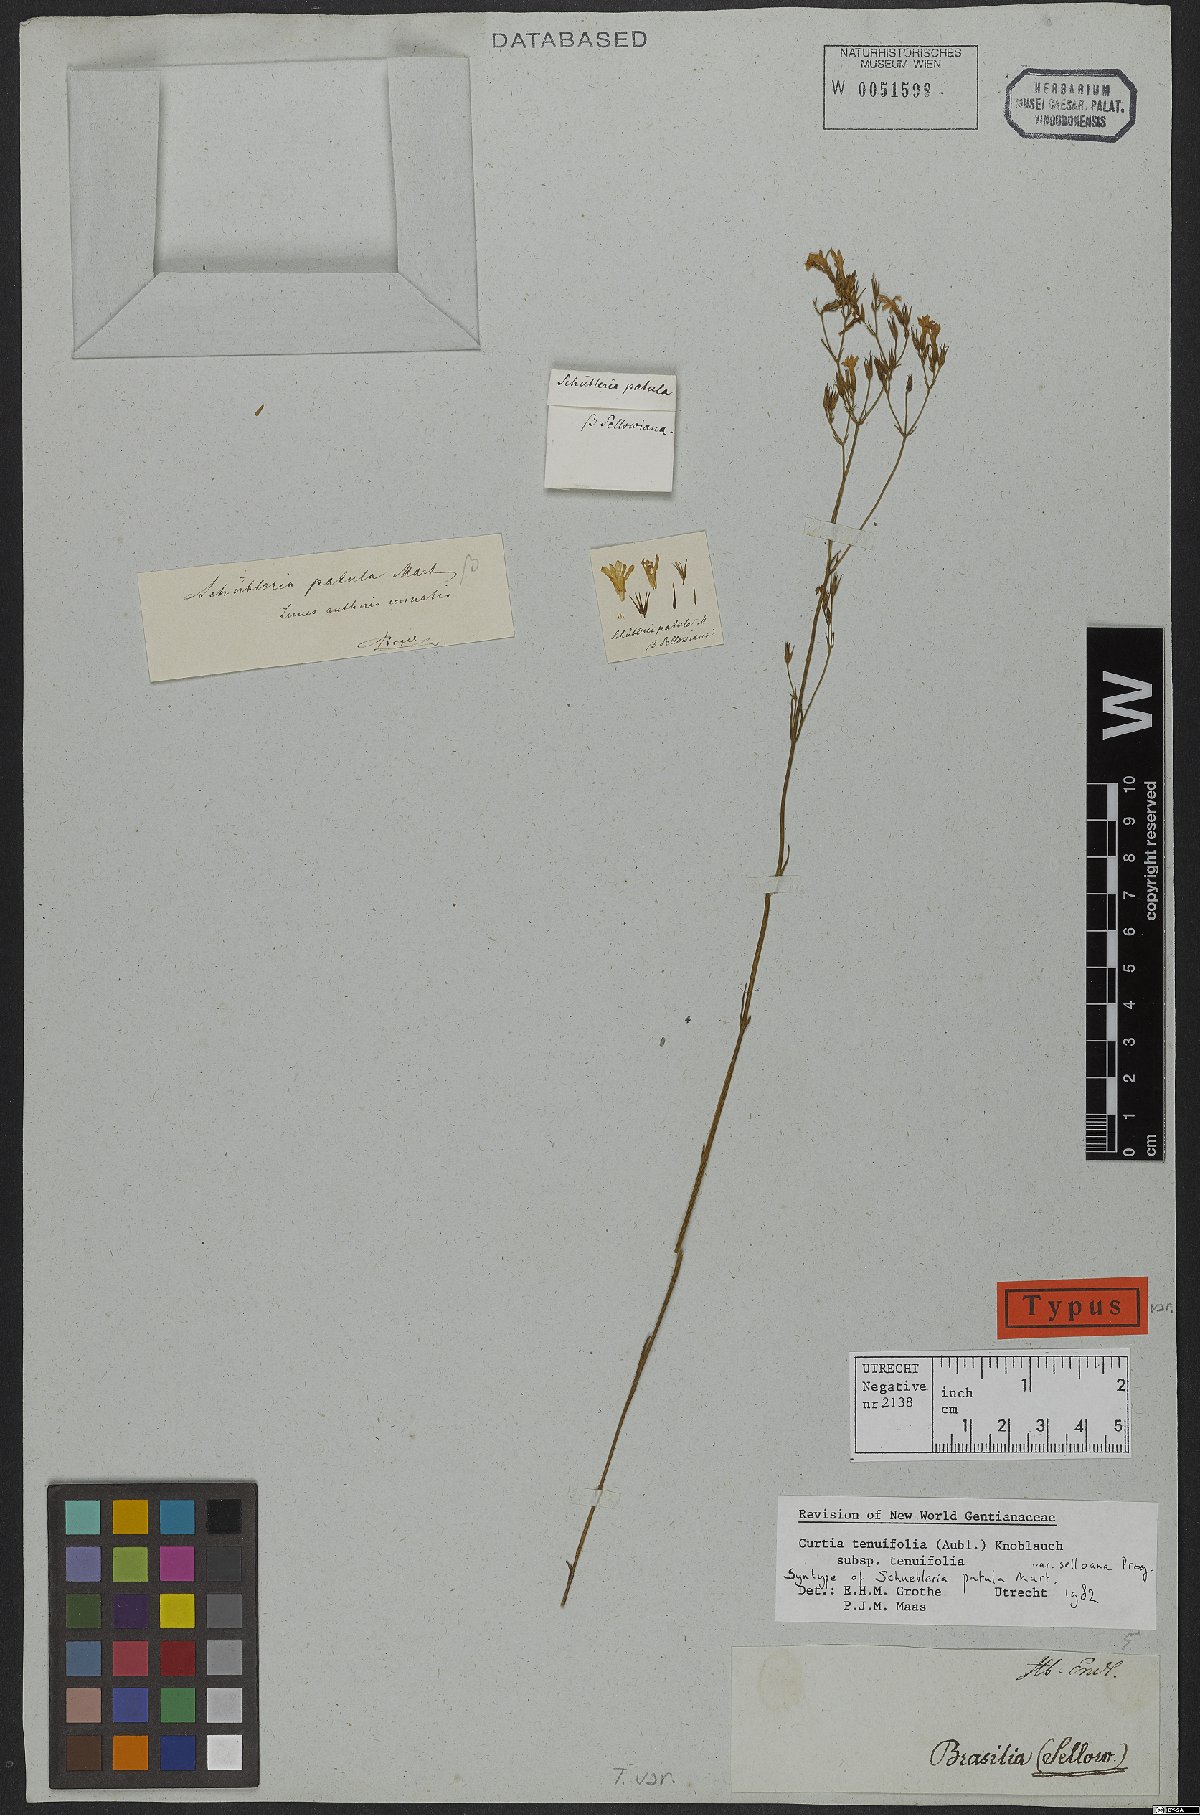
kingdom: Plantae
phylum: Tracheophyta
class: Magnoliopsida
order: Gentianales
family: Gentianaceae
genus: Curtia
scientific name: Curtia tenuifolia
